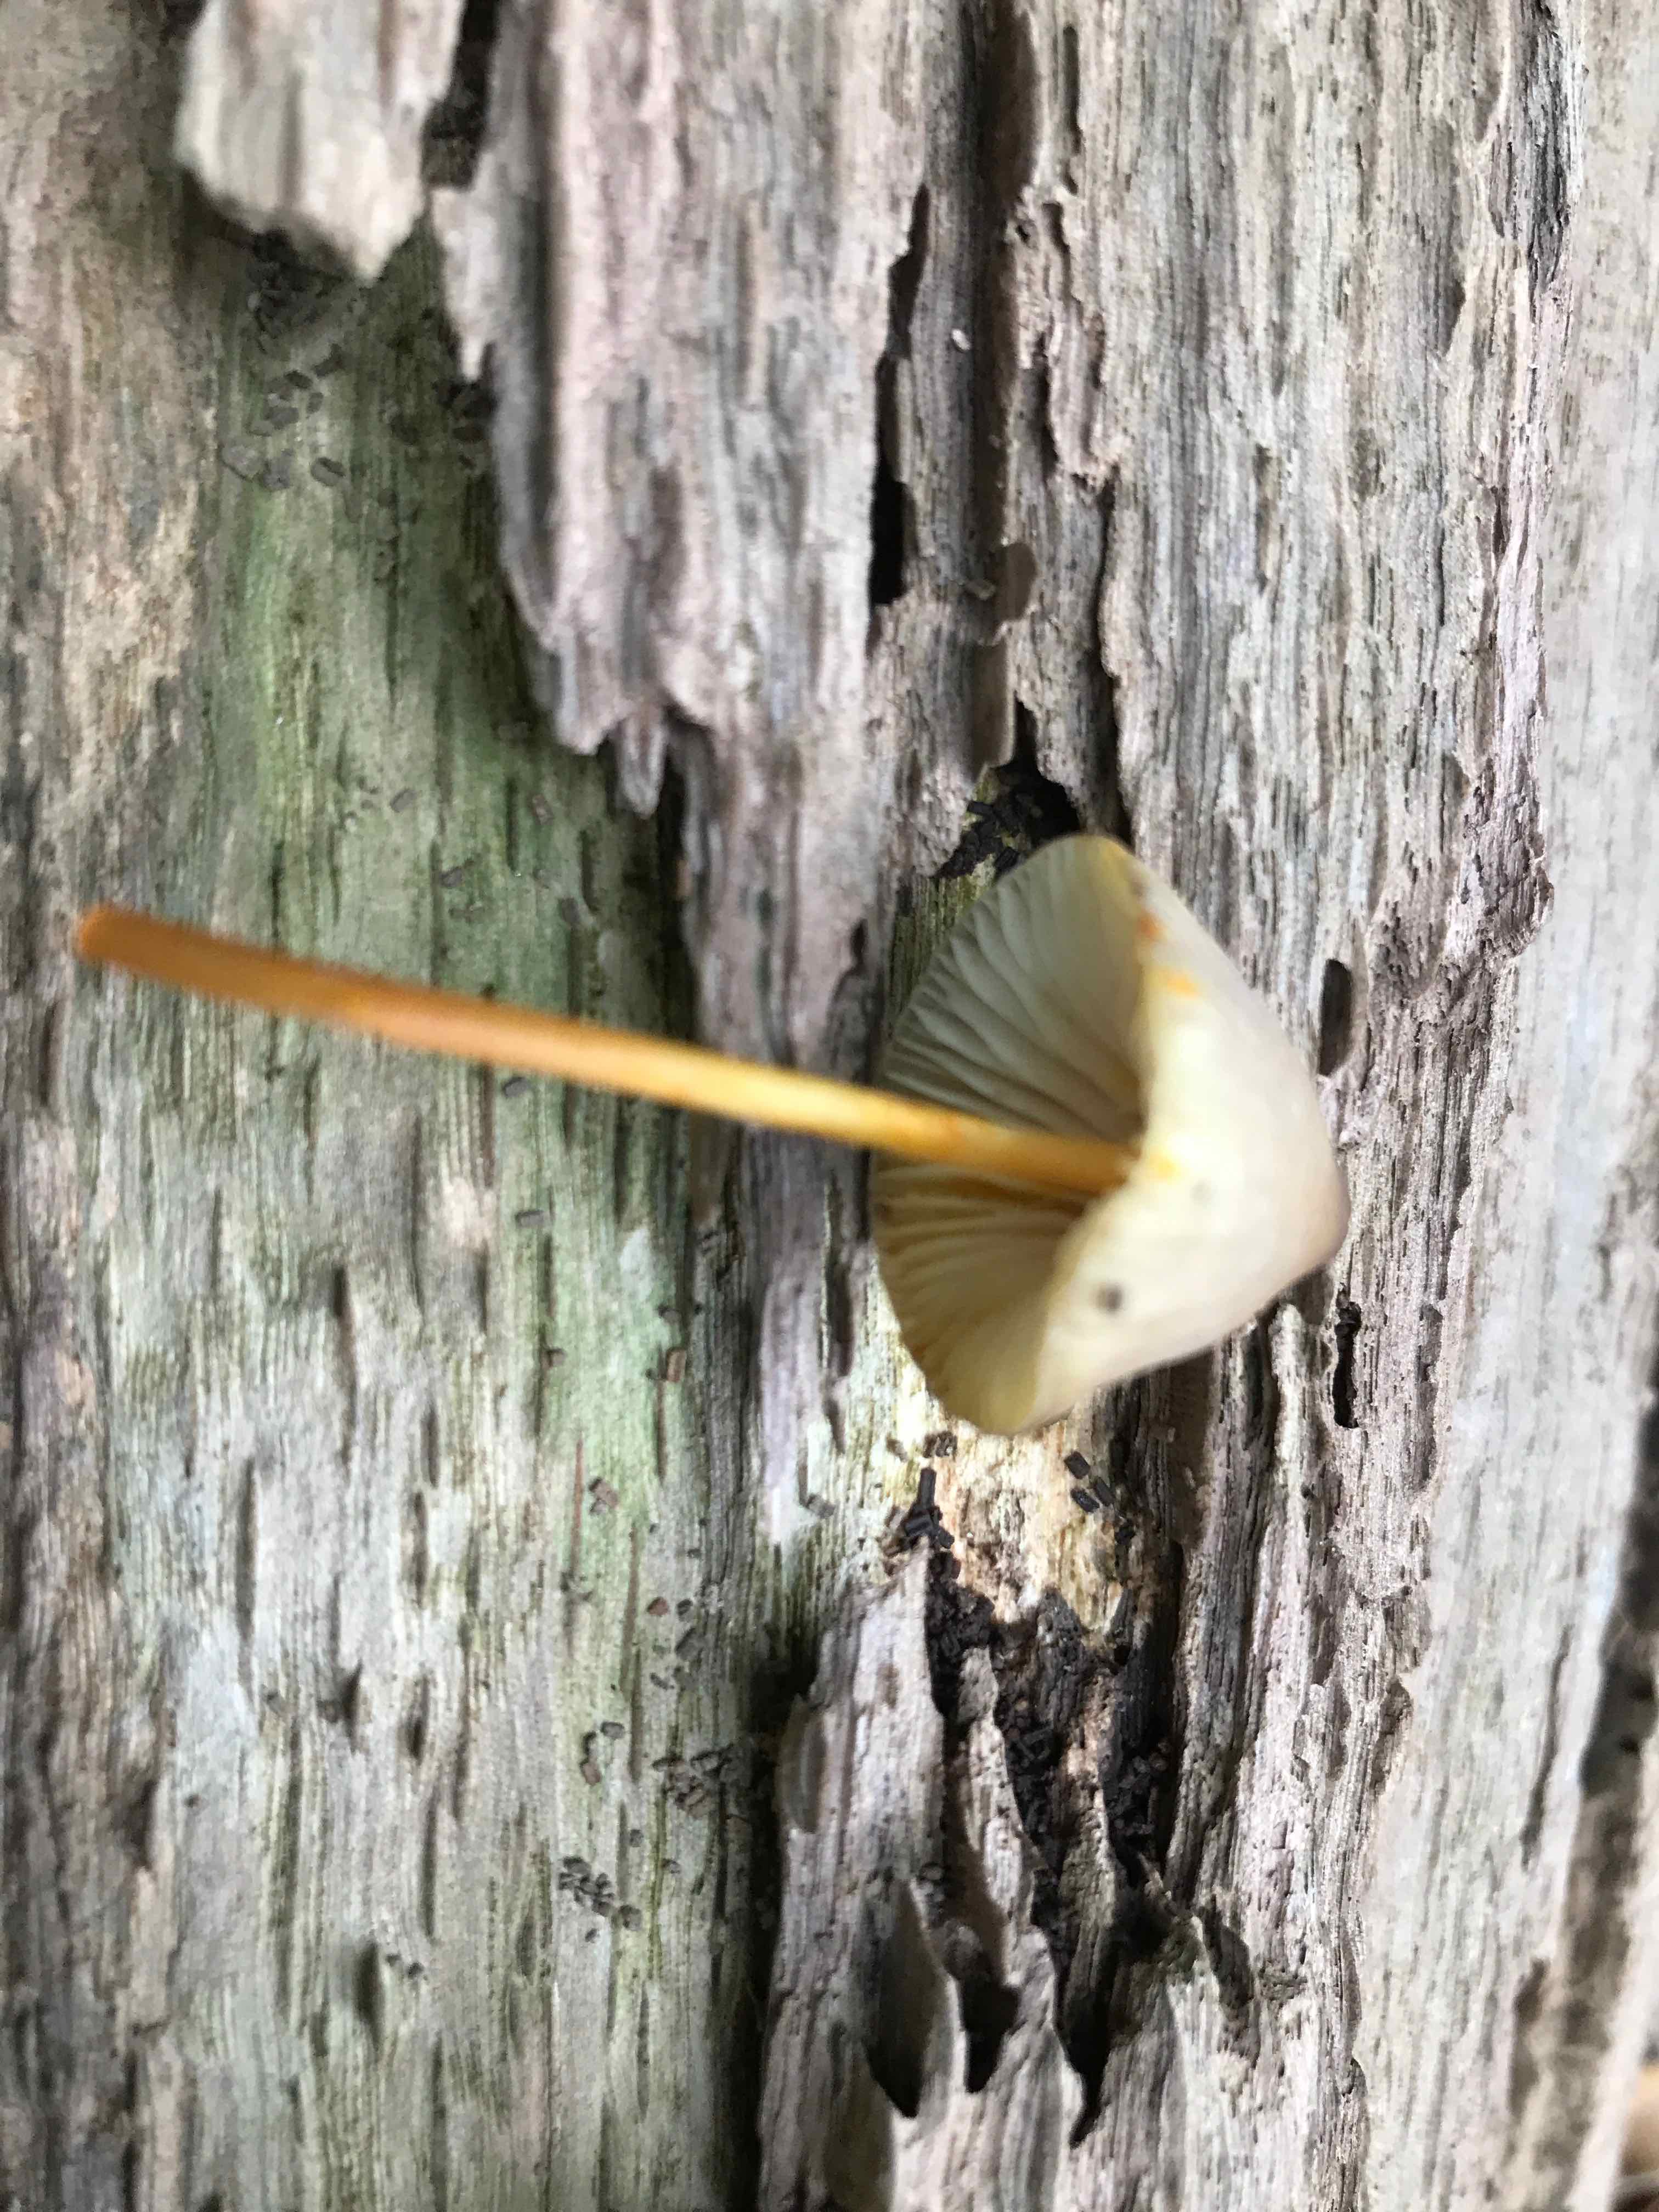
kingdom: Fungi
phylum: Basidiomycota
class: Agaricomycetes
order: Agaricales
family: Mycenaceae
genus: Mycena
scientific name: Mycena crocata
